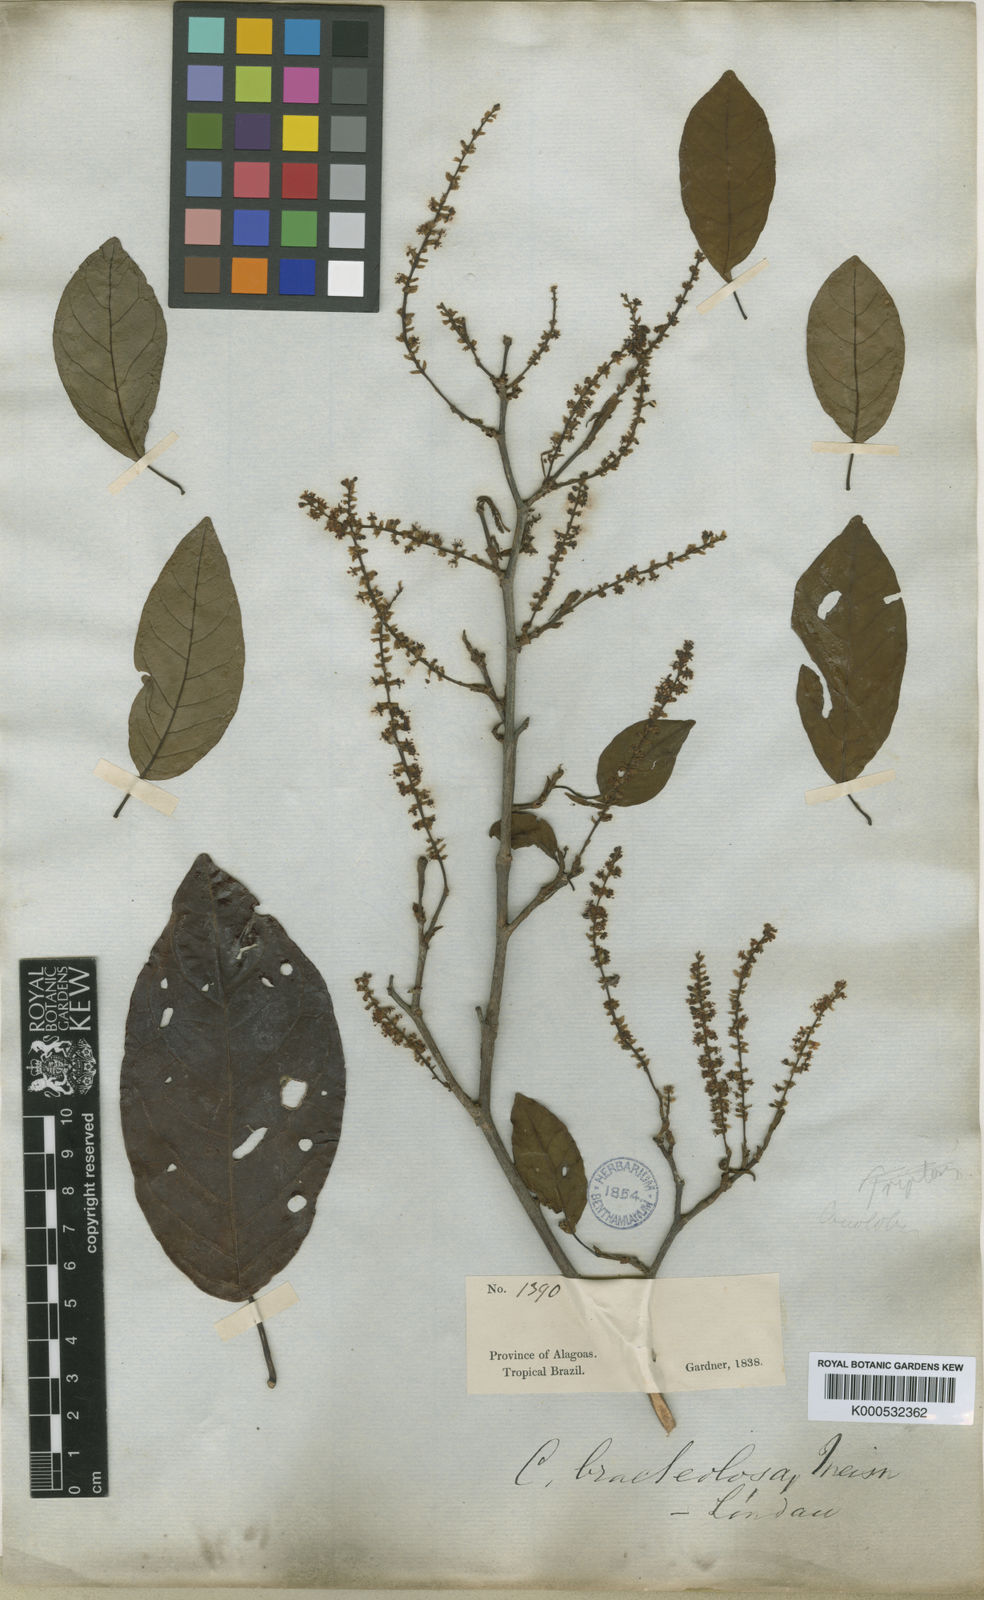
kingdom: Plantae
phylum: Tracheophyta
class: Magnoliopsida
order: Caryophyllales
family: Polygonaceae
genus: Coccoloba
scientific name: Coccoloba excelsa
